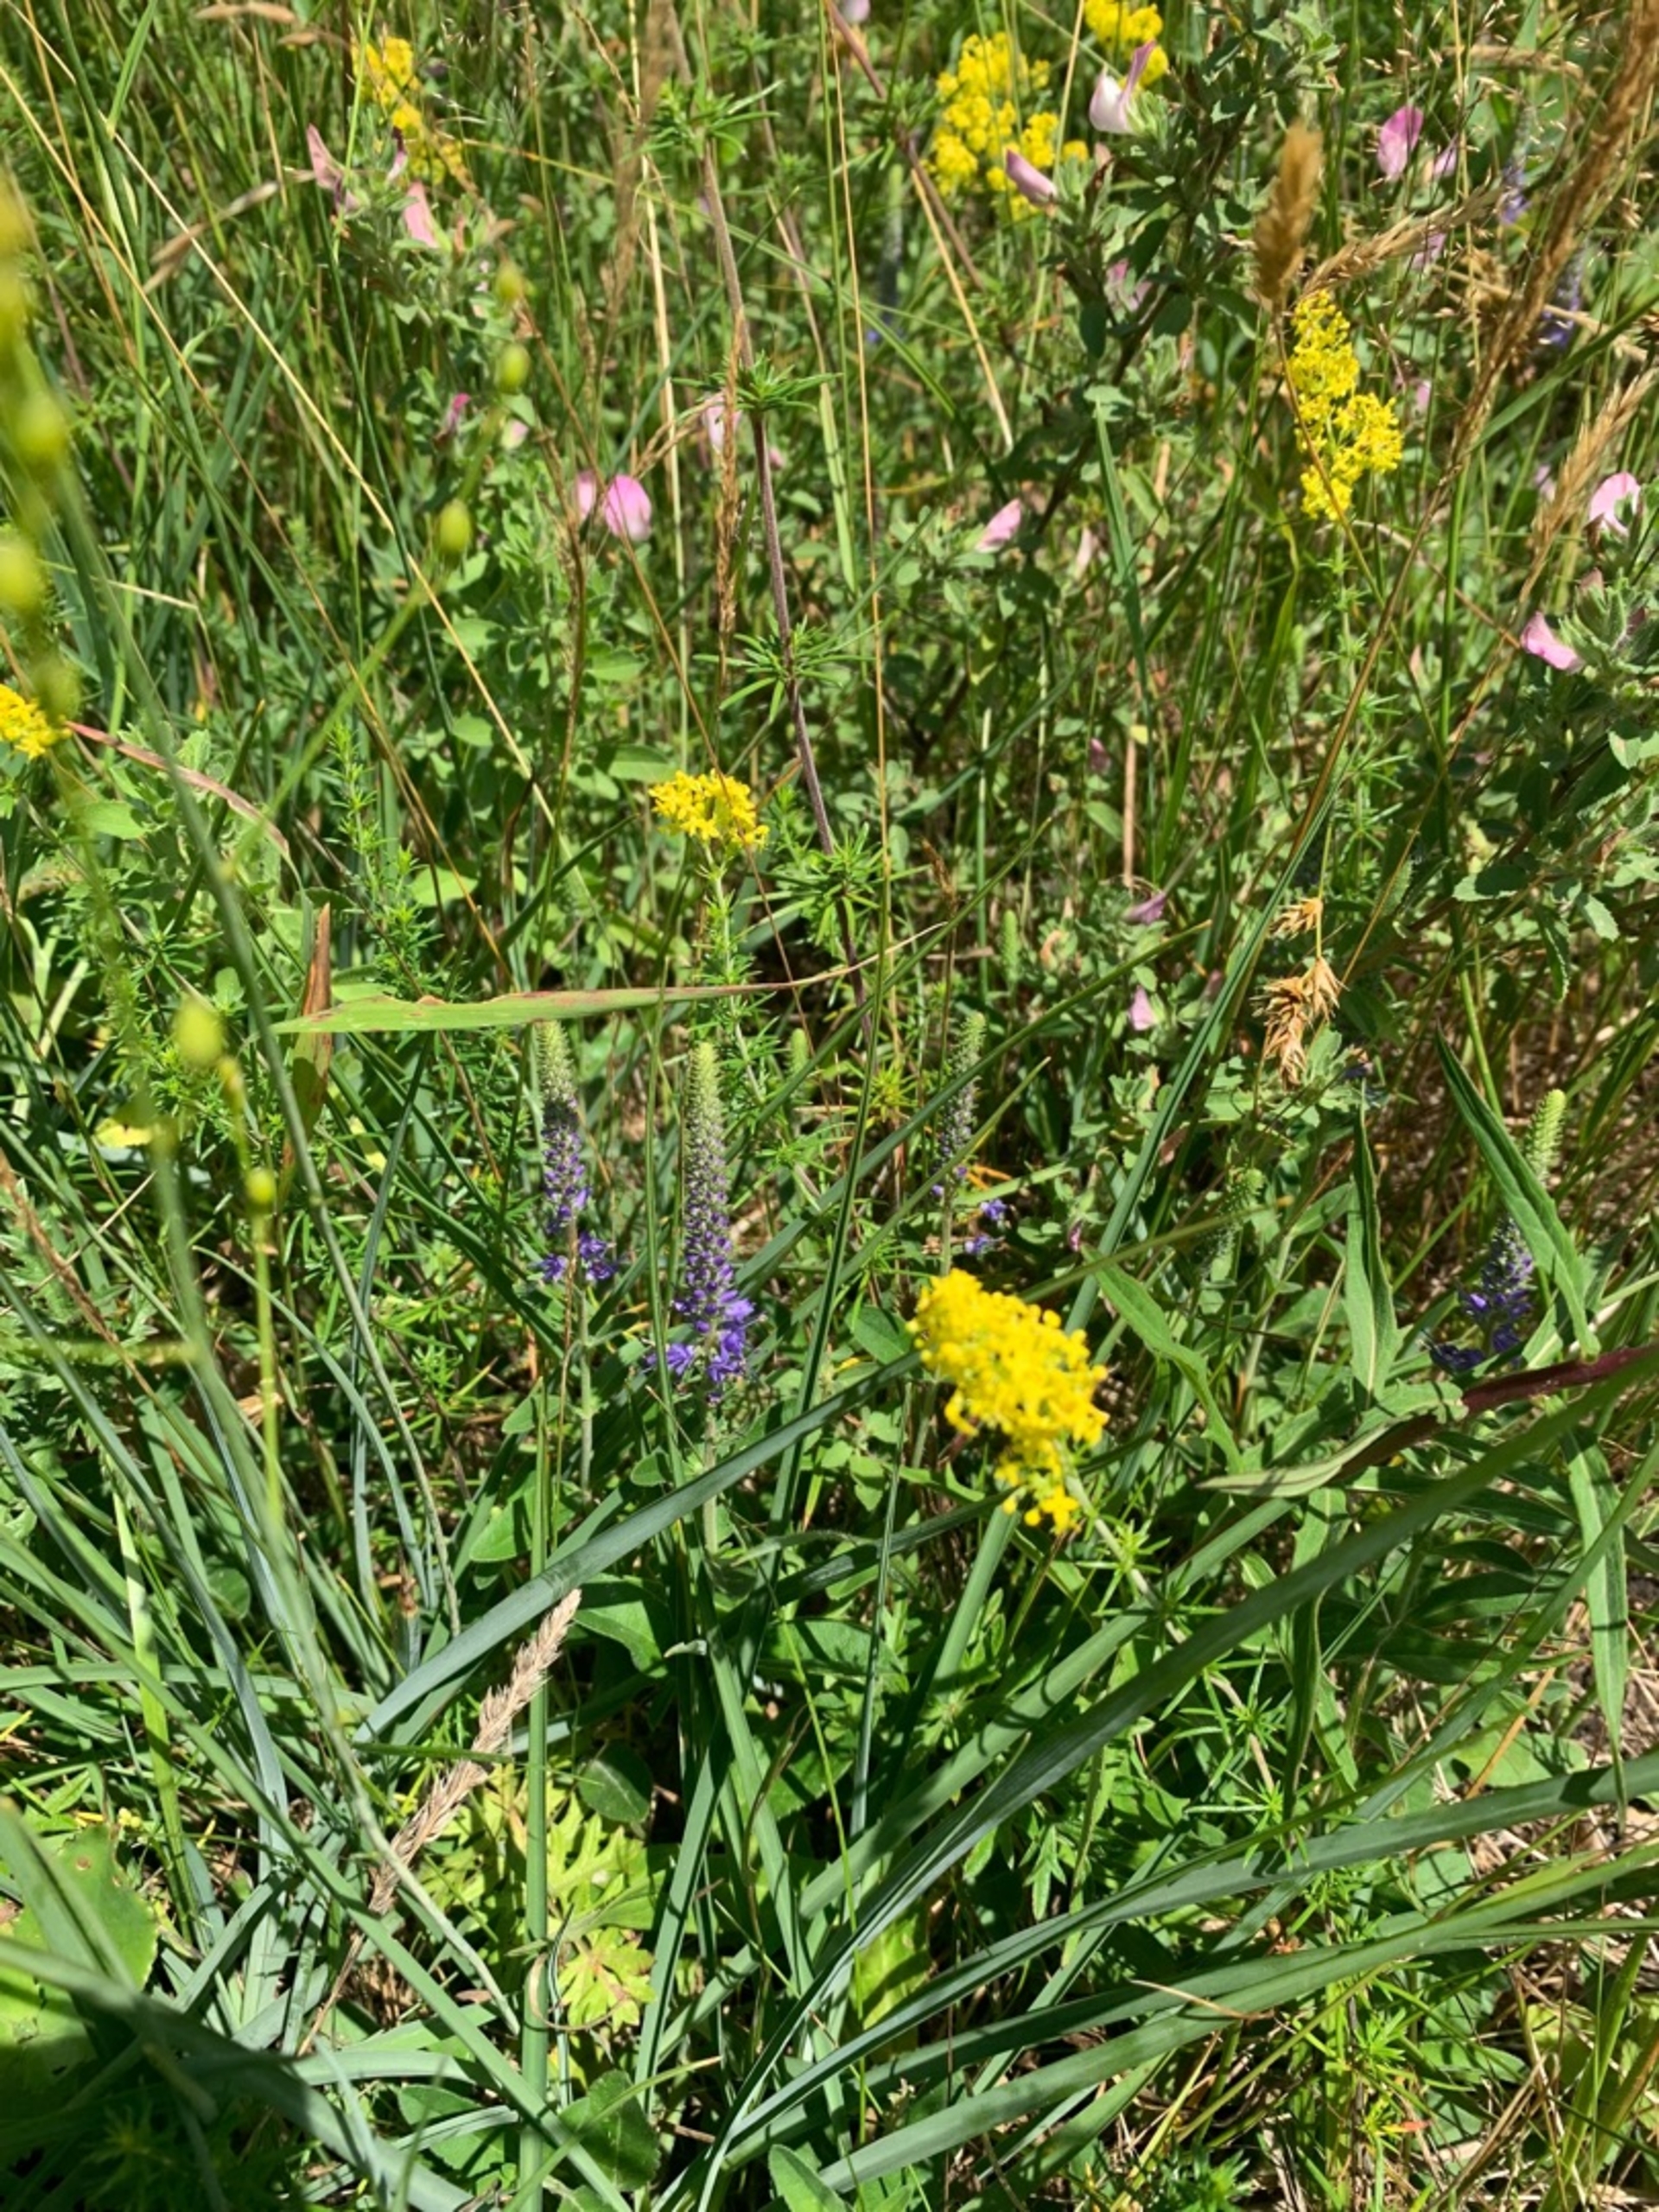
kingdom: Plantae
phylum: Tracheophyta
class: Magnoliopsida
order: Lamiales
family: Plantaginaceae
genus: Veronica
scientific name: Veronica spicata
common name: Aks-ærenpris
